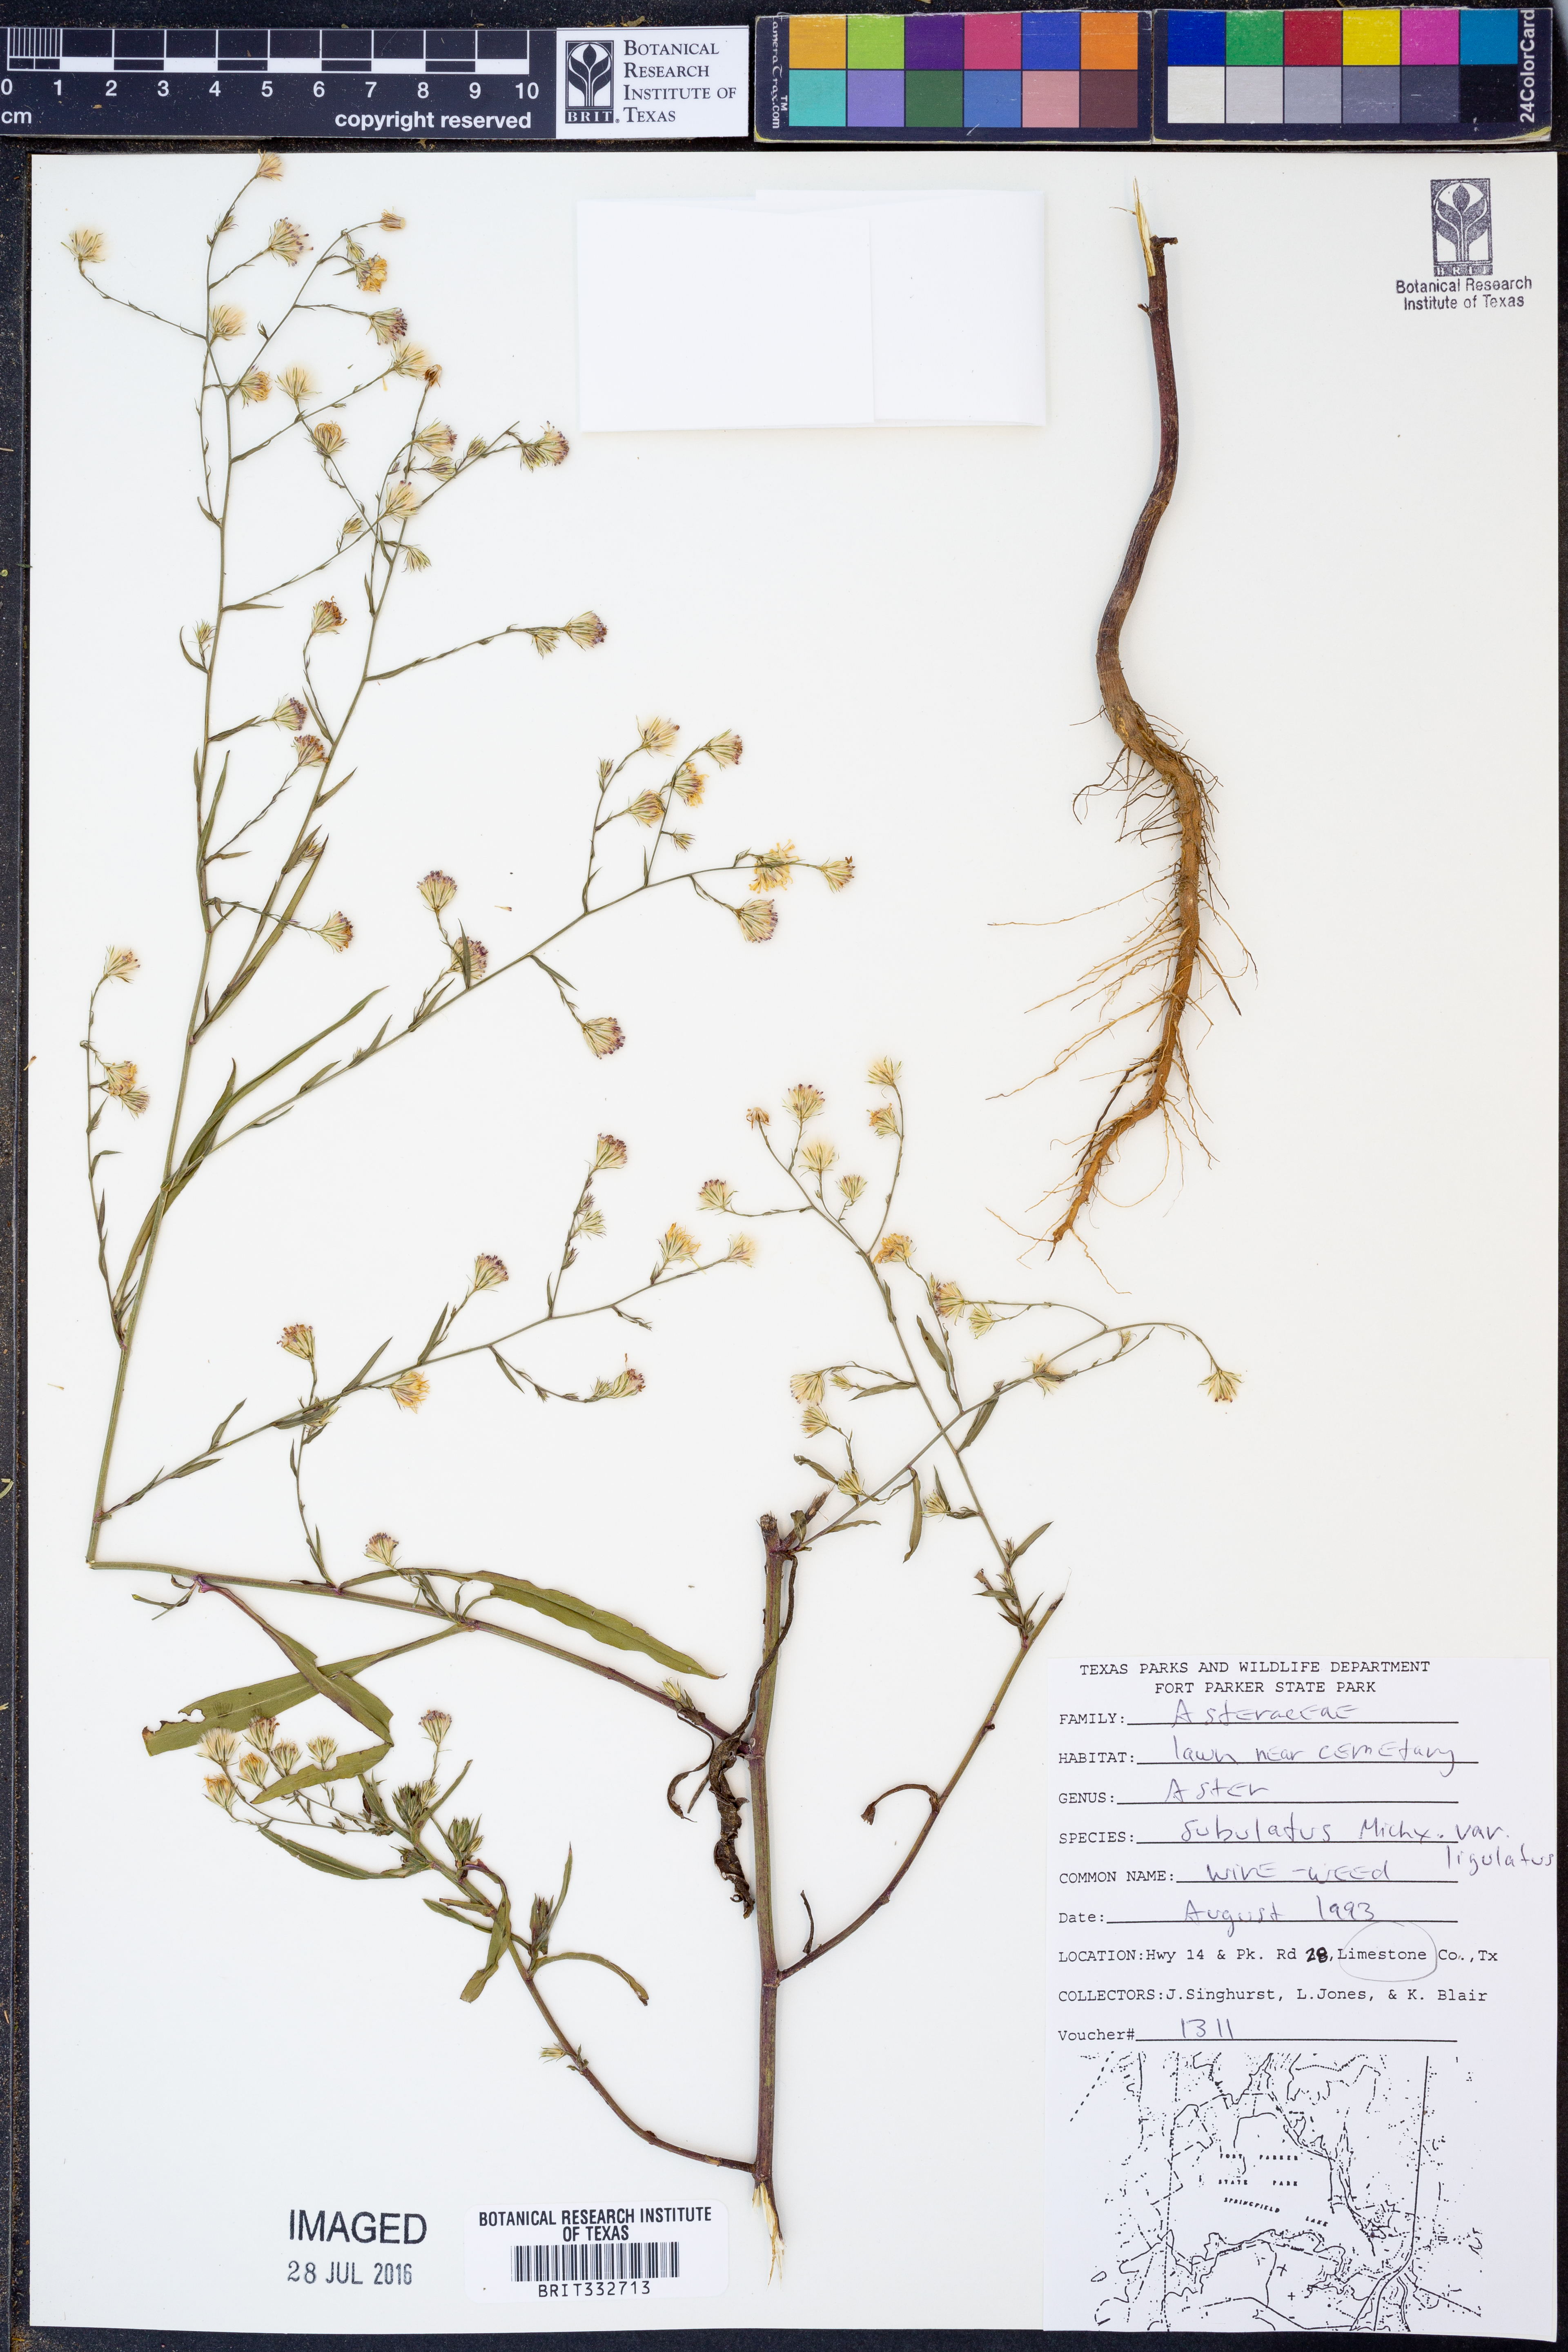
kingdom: Plantae
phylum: Tracheophyta
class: Magnoliopsida
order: Asterales
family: Asteraceae
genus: Symphyotrichum
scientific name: Symphyotrichum subulatum
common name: Annual saltmarsh aster
